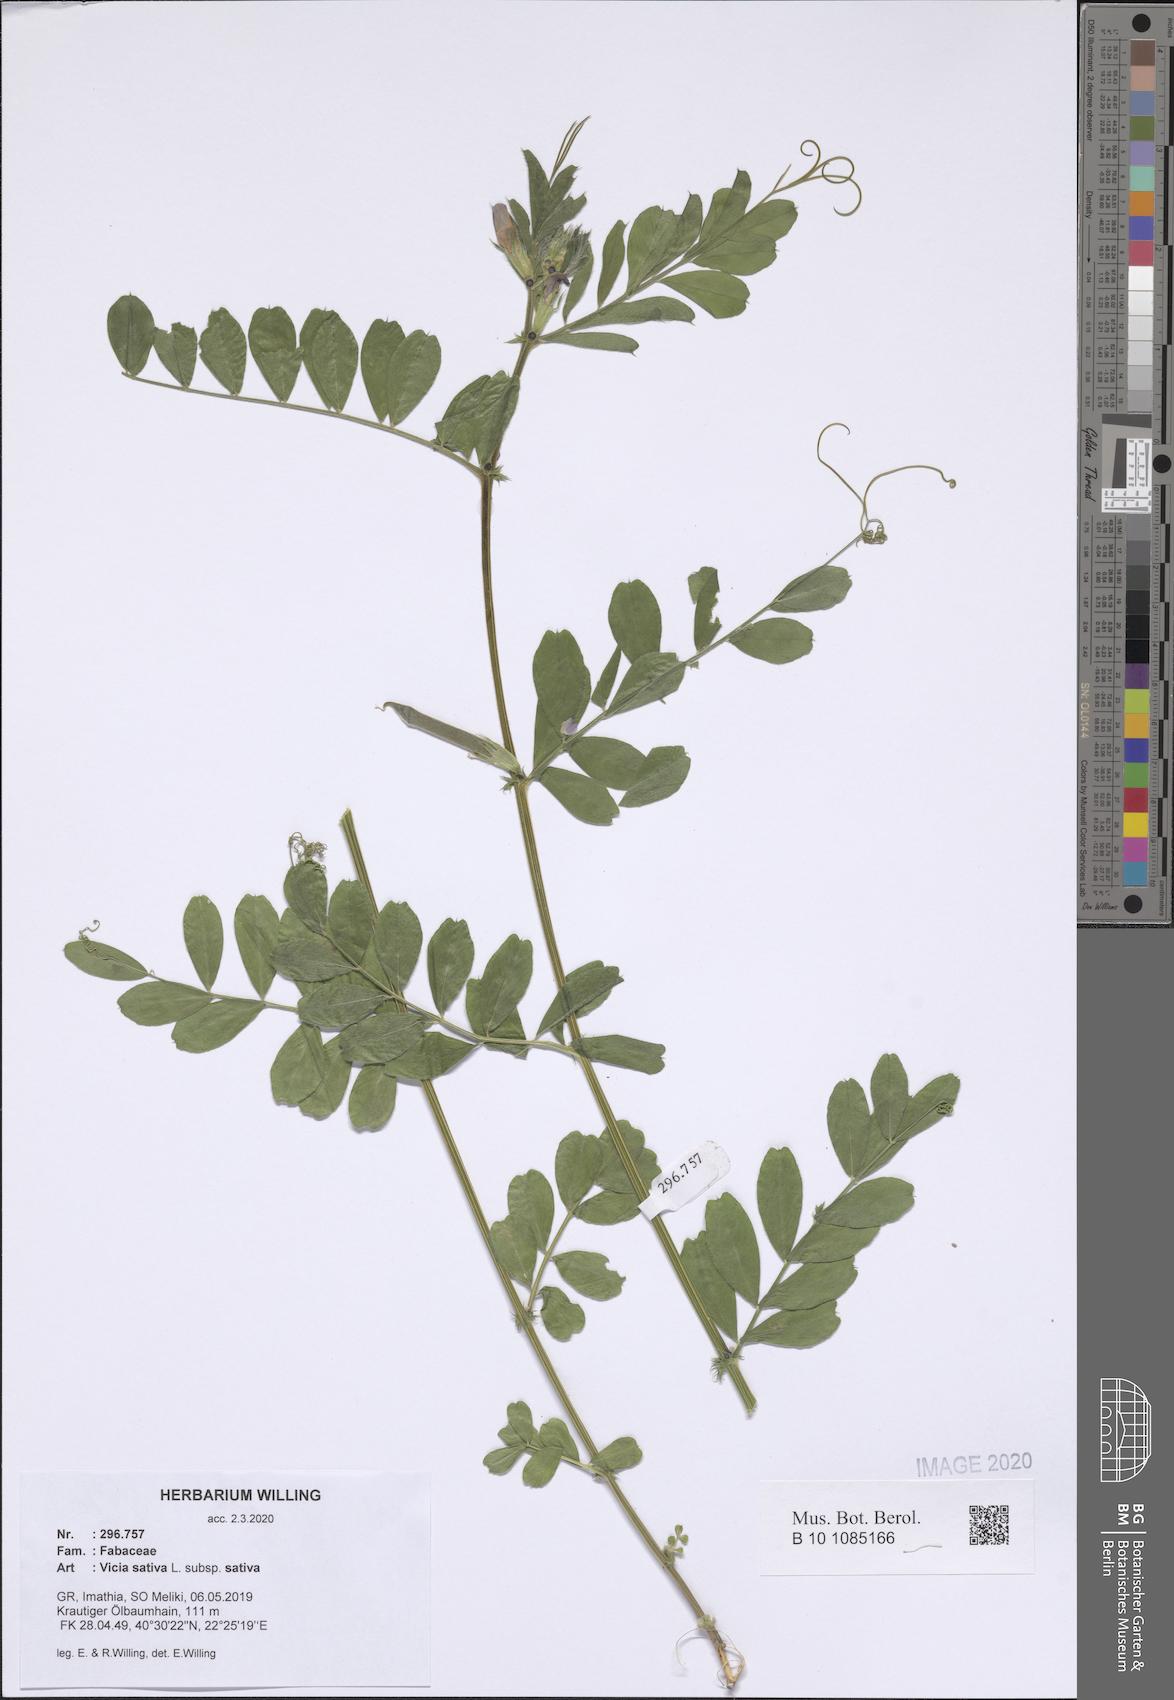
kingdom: Plantae
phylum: Tracheophyta
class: Magnoliopsida
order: Fabales
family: Fabaceae
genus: Vicia
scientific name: Vicia sativa
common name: Garden vetch
